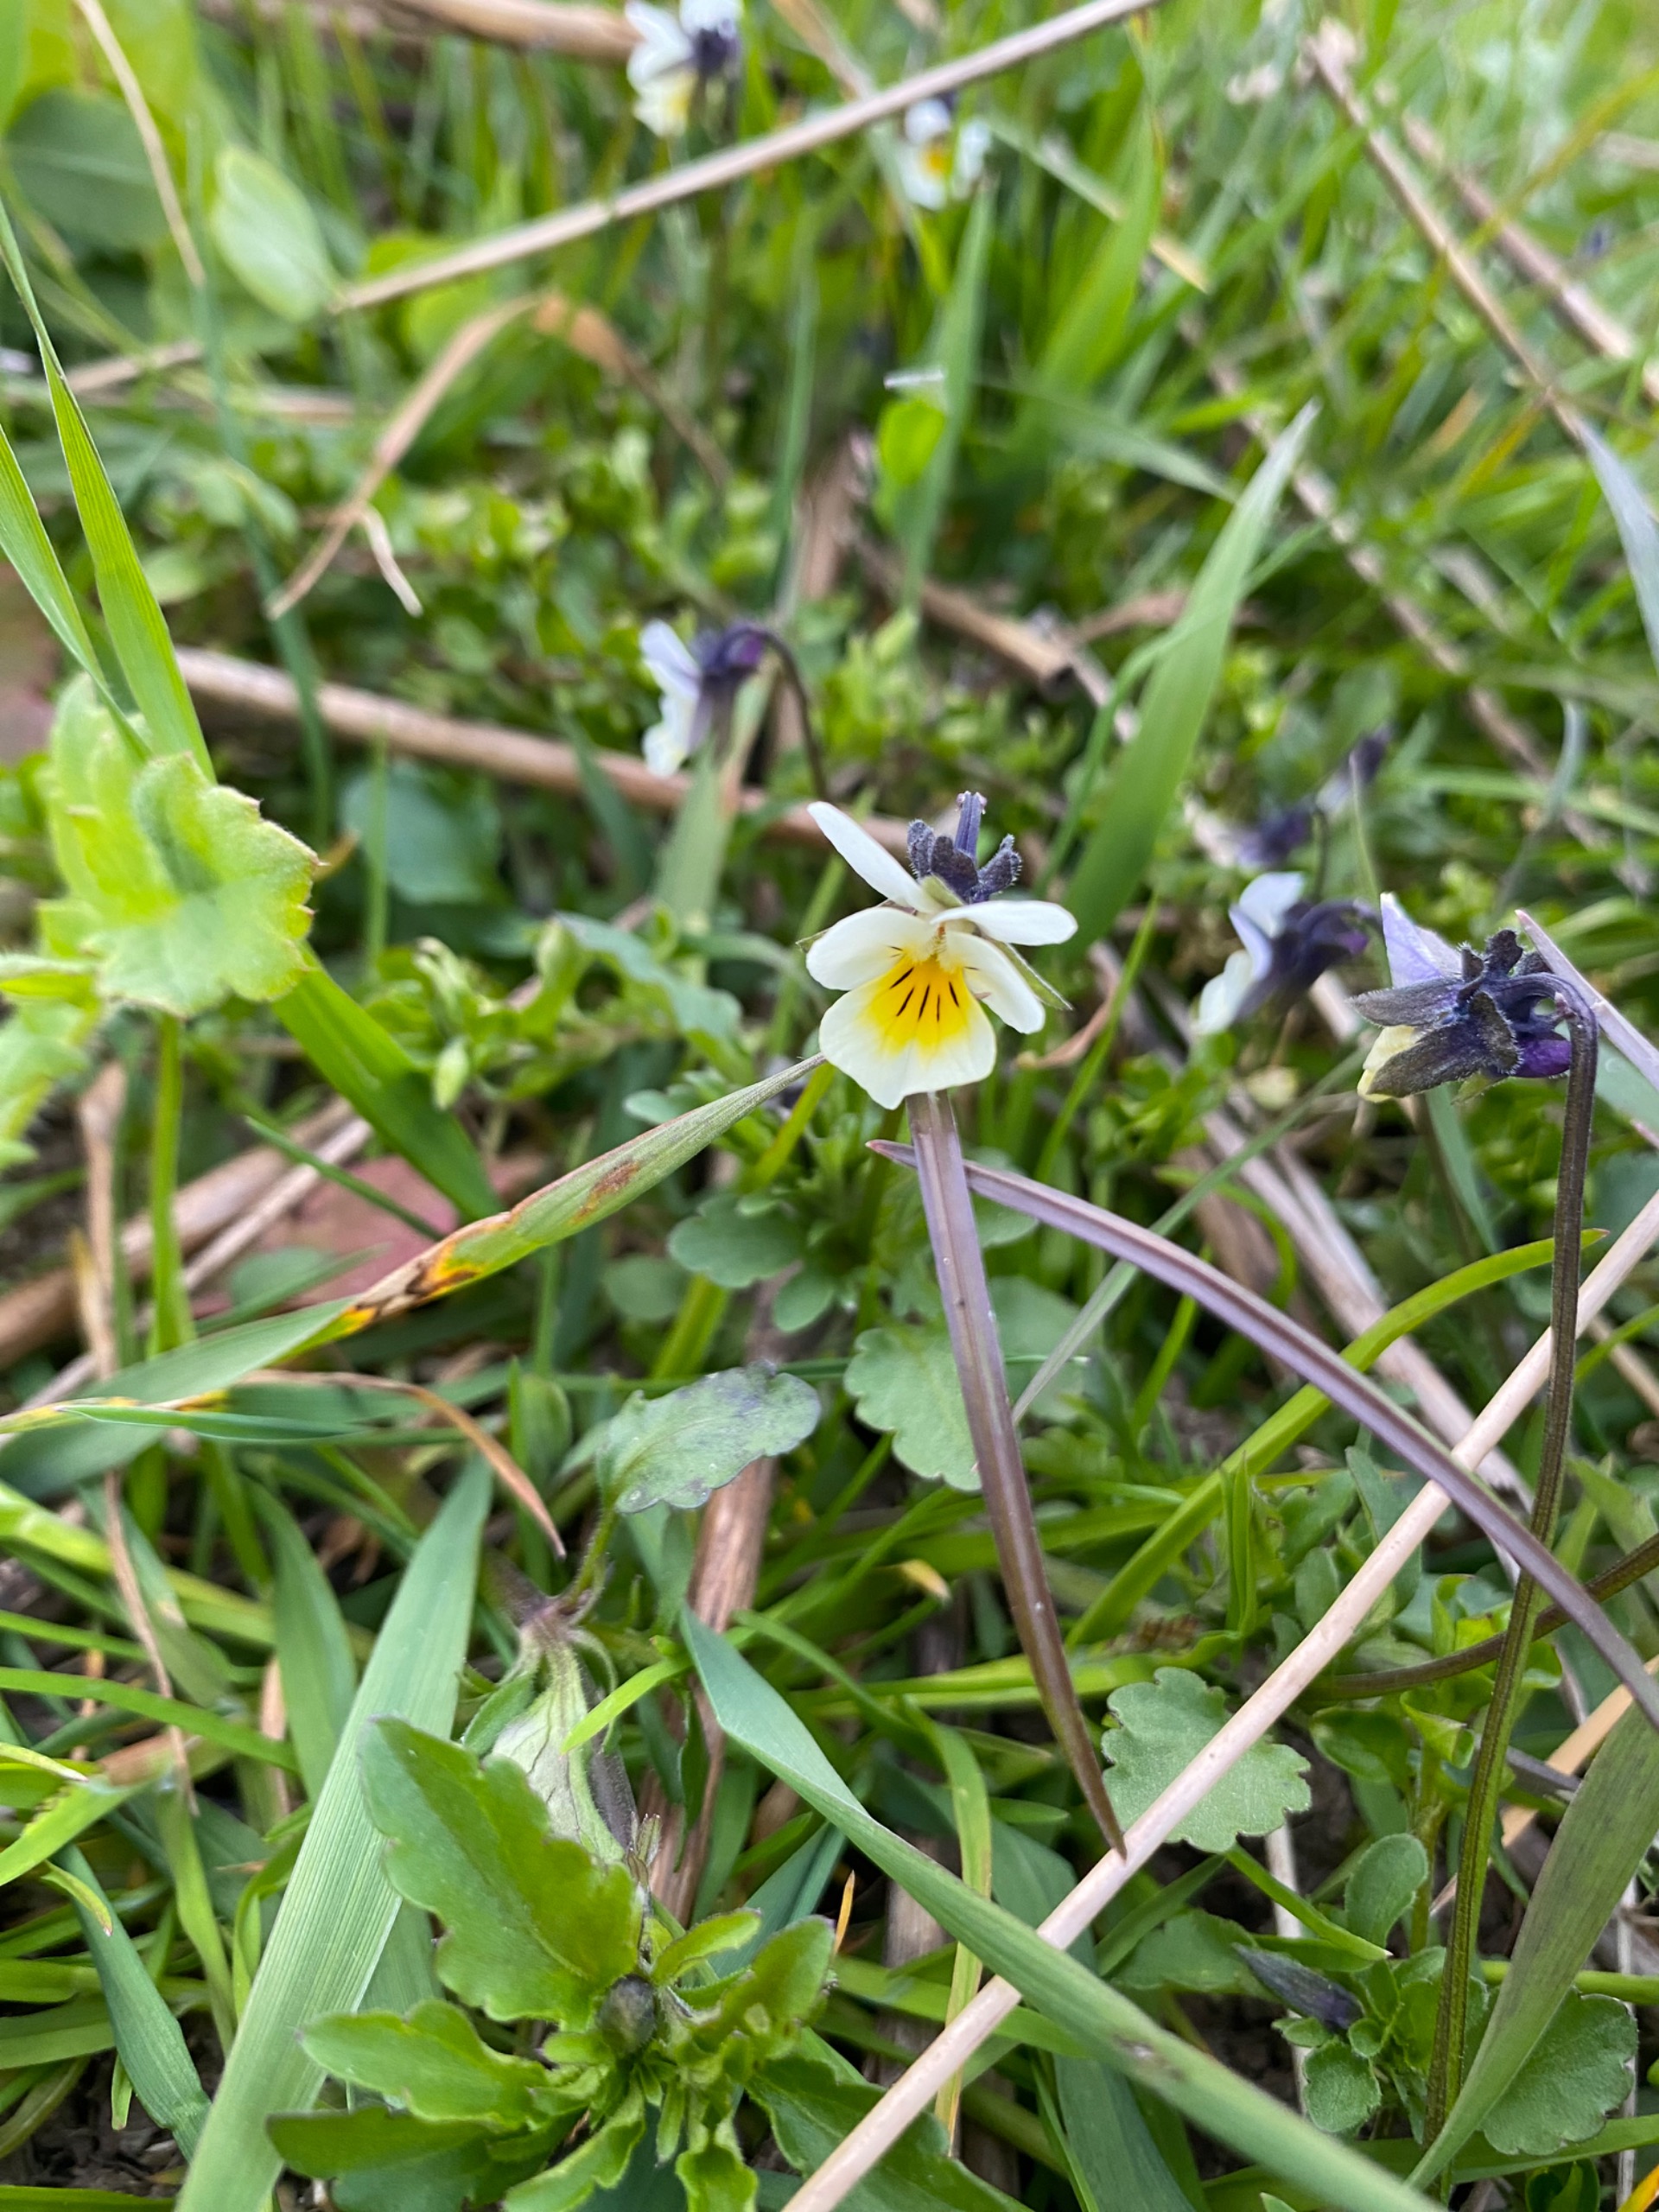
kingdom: Plantae
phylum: Tracheophyta
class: Magnoliopsida
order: Malpighiales
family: Violaceae
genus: Viola
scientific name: Viola arvensis
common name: Ager-stedmoderblomst
